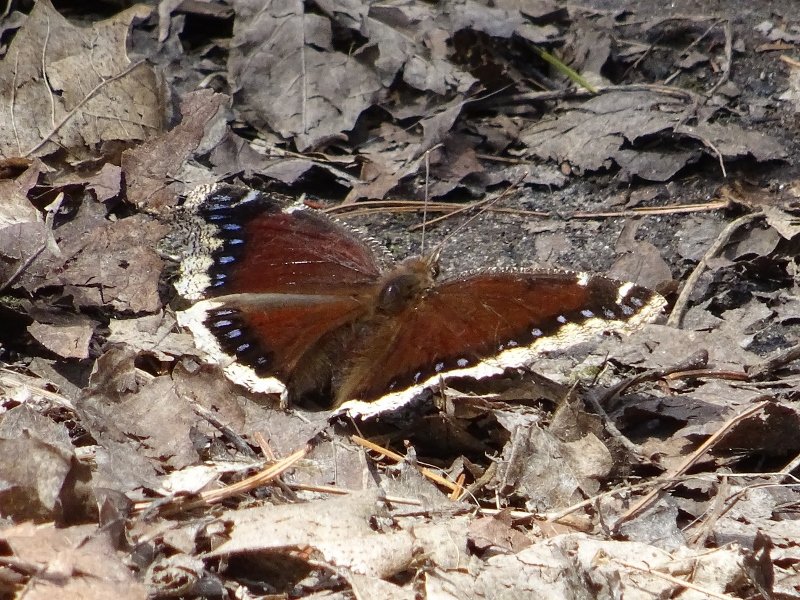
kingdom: Animalia
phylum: Arthropoda
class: Insecta
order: Lepidoptera
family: Nymphalidae
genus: Nymphalis
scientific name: Nymphalis antiopa
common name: Mourning Cloak
